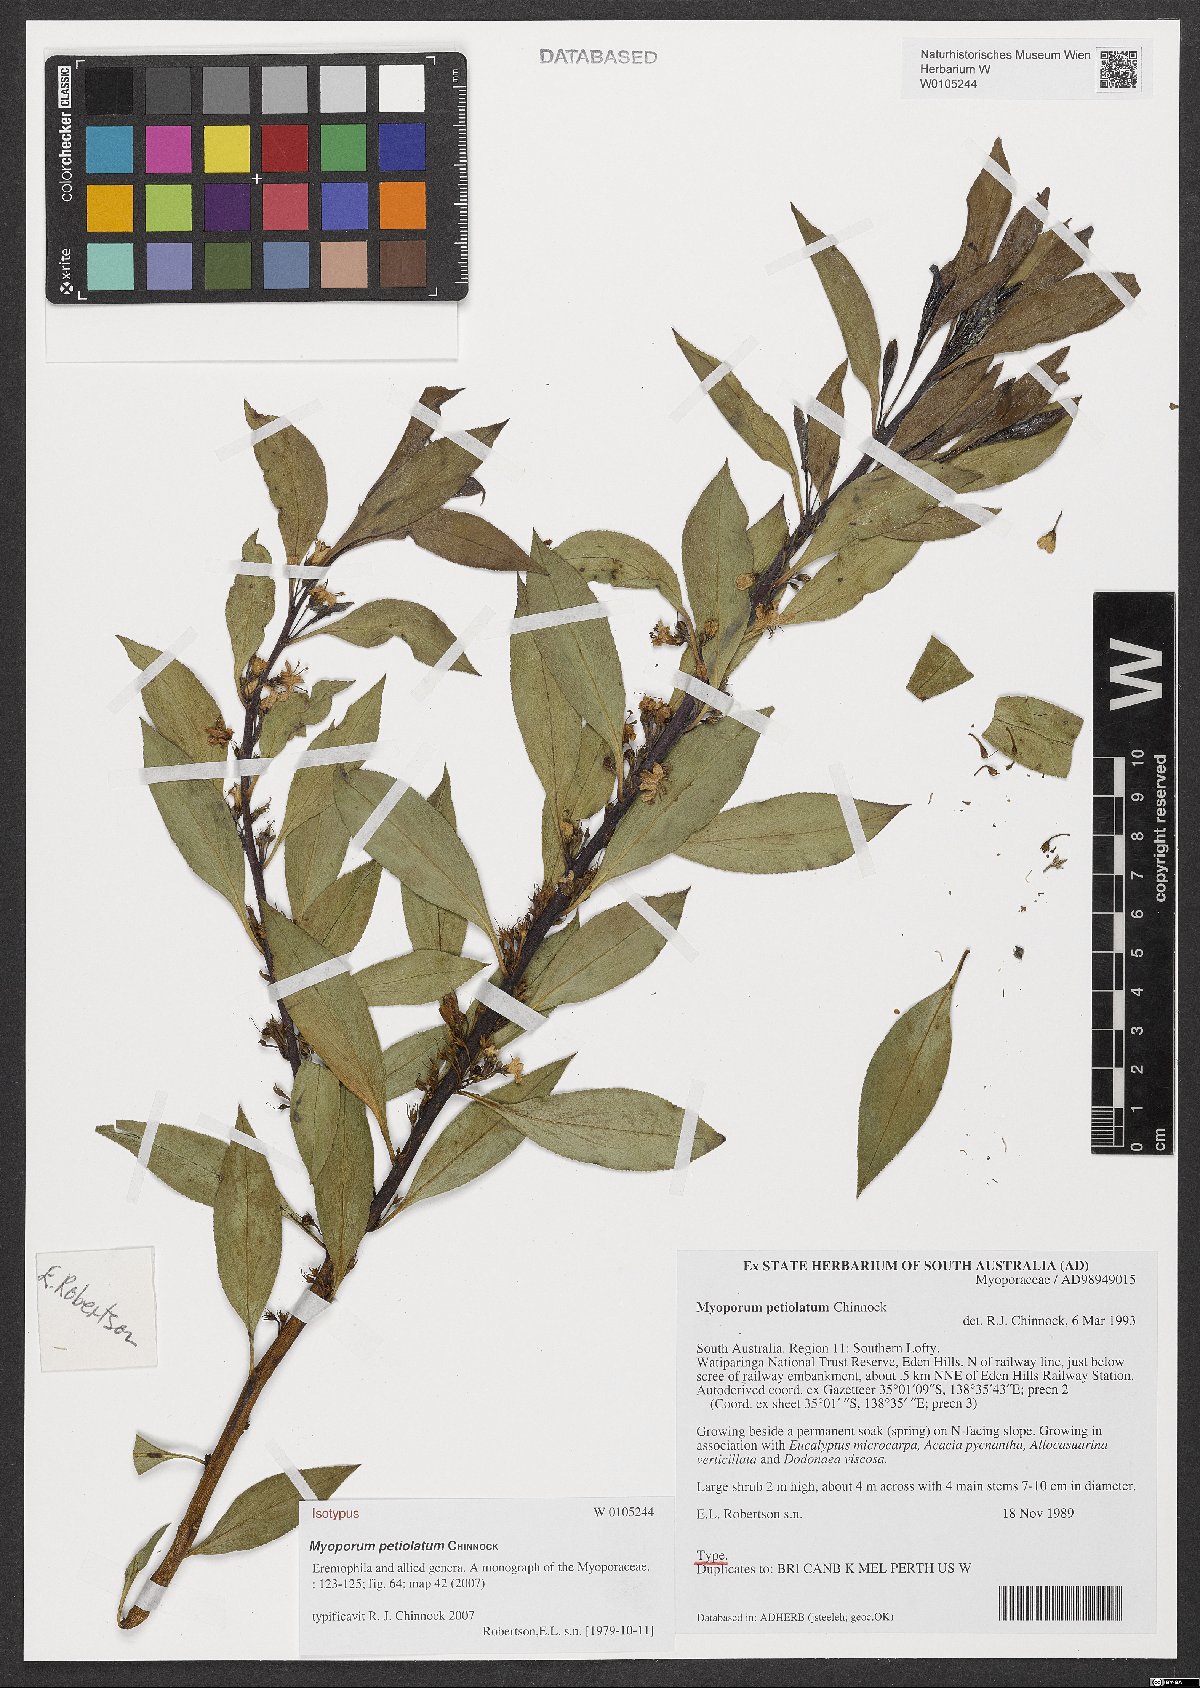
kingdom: Plantae
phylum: Tracheophyta
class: Magnoliopsida
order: Lamiales
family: Scrophulariaceae
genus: Myoporum
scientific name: Myoporum petiolatum
